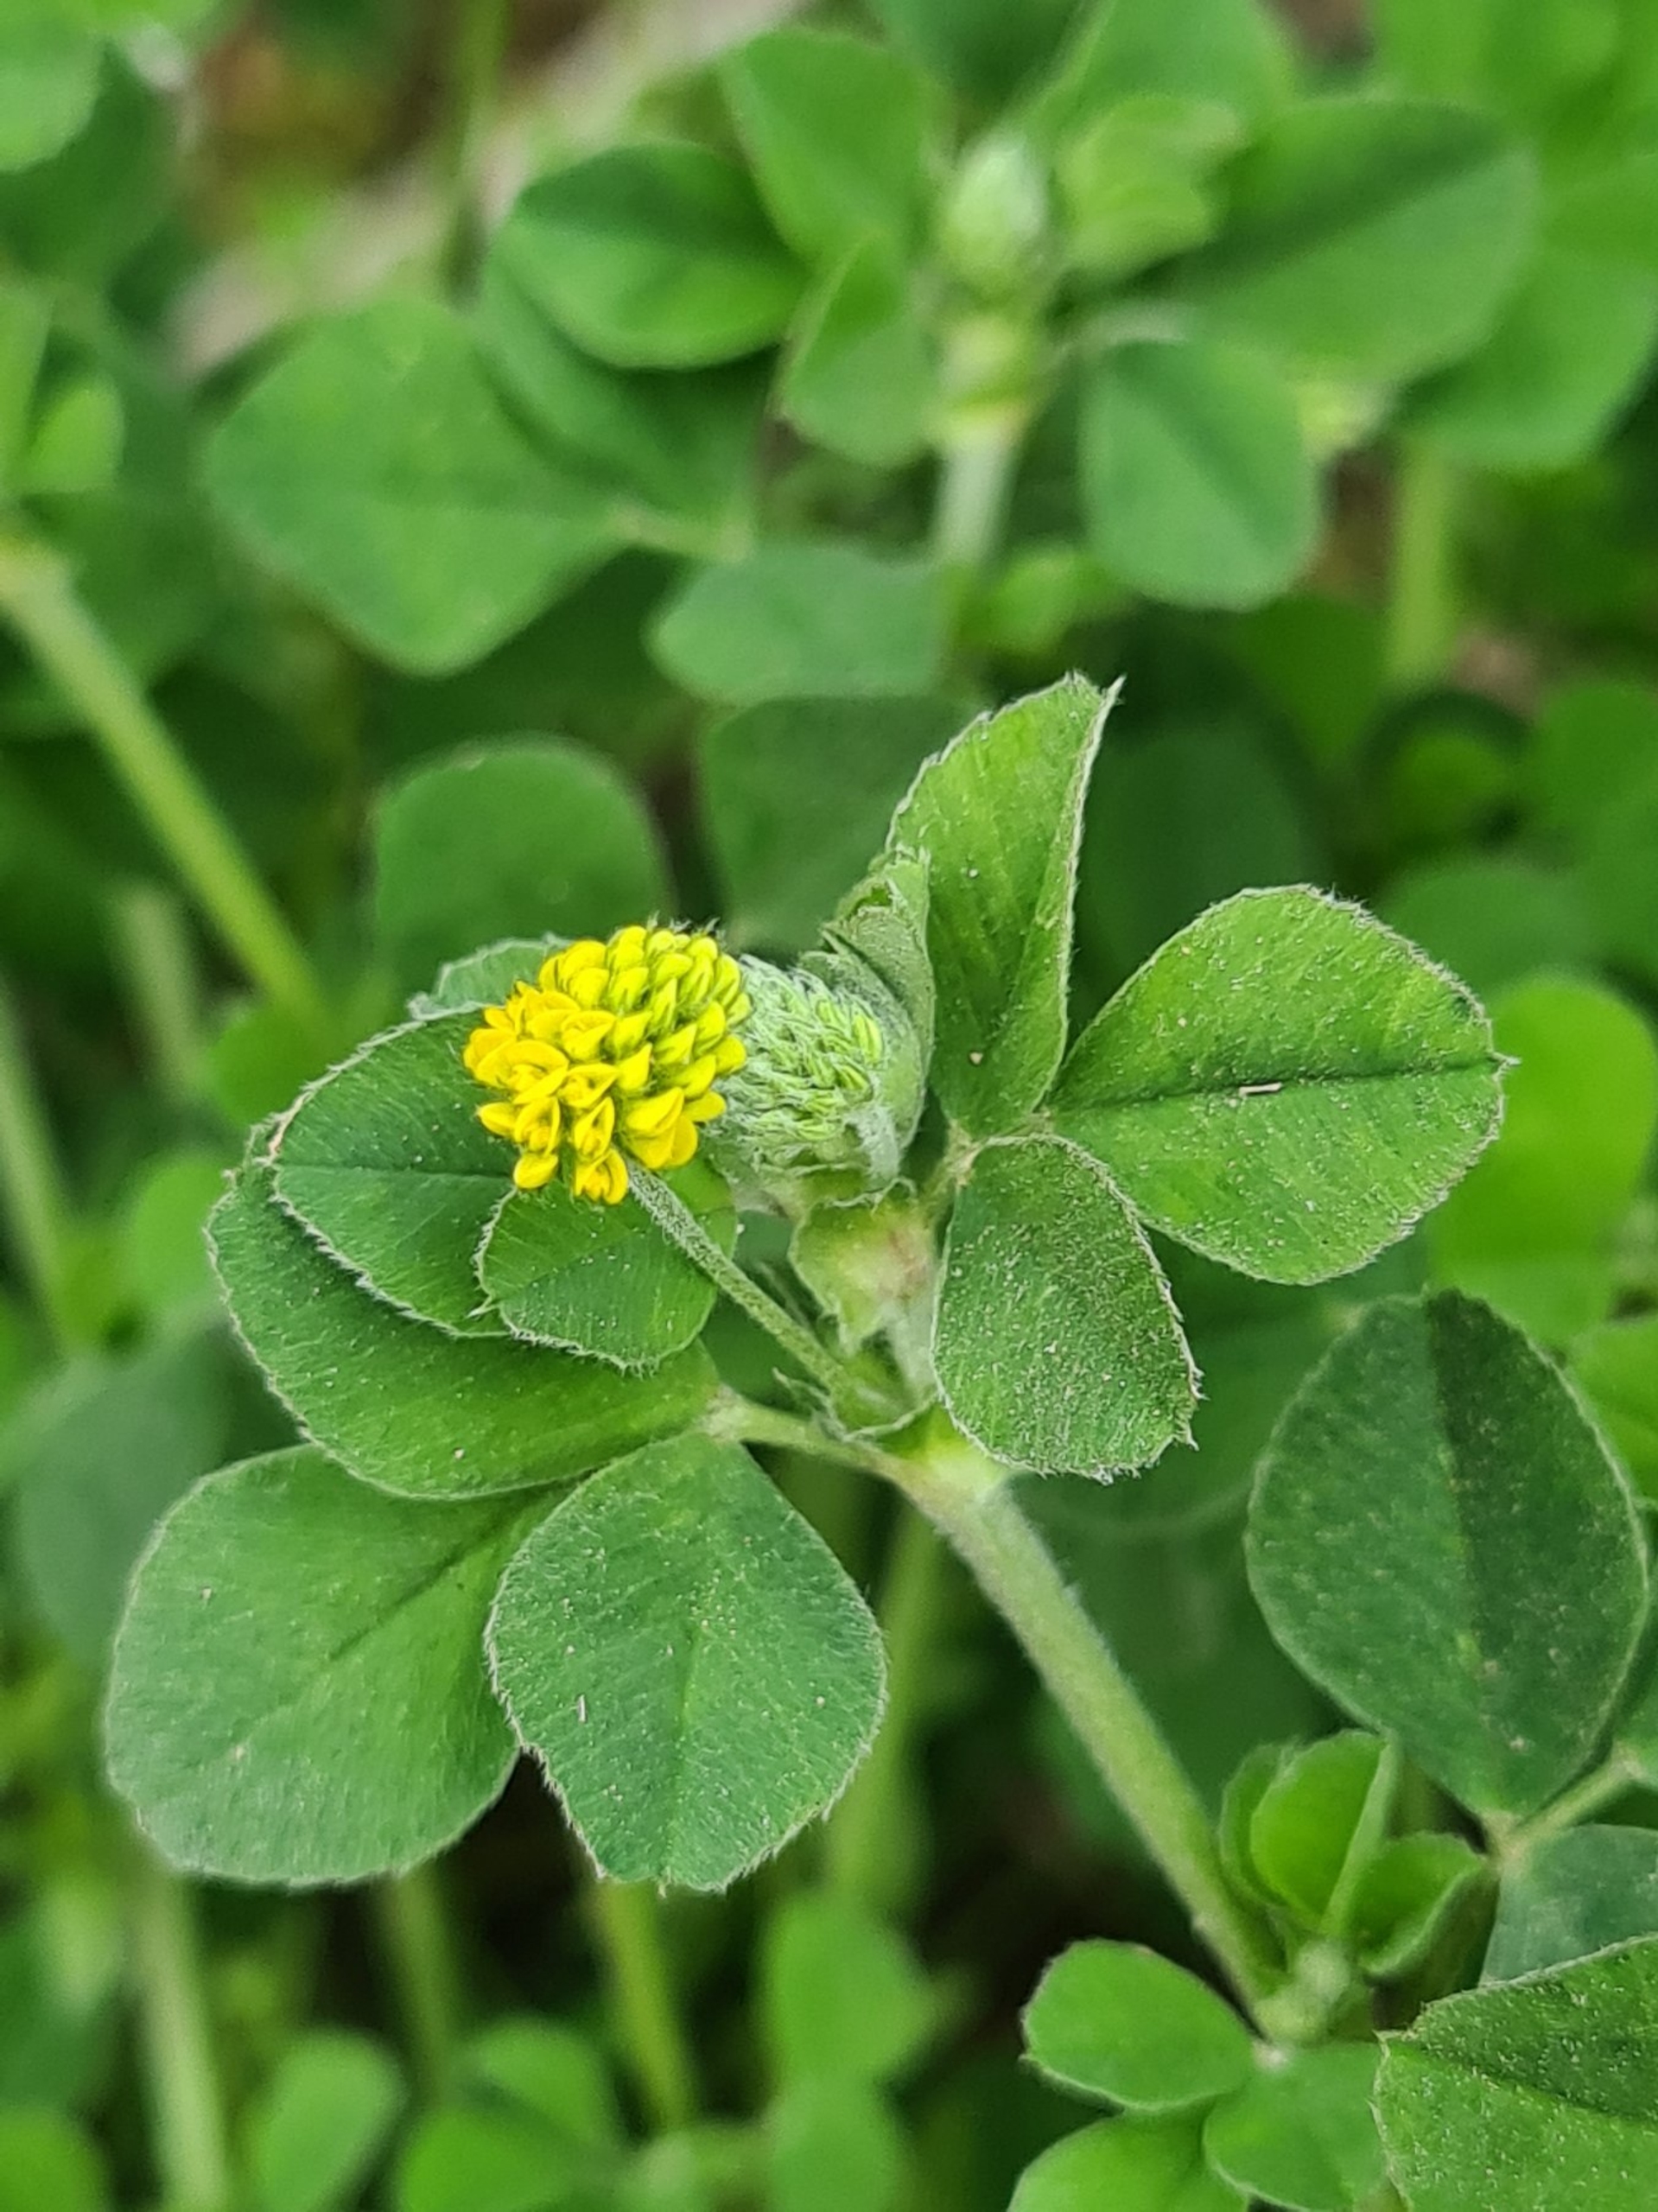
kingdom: Plantae
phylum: Tracheophyta
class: Magnoliopsida
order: Fabales
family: Fabaceae
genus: Medicago
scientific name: Medicago lupulina
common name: Humle-sneglebælg
